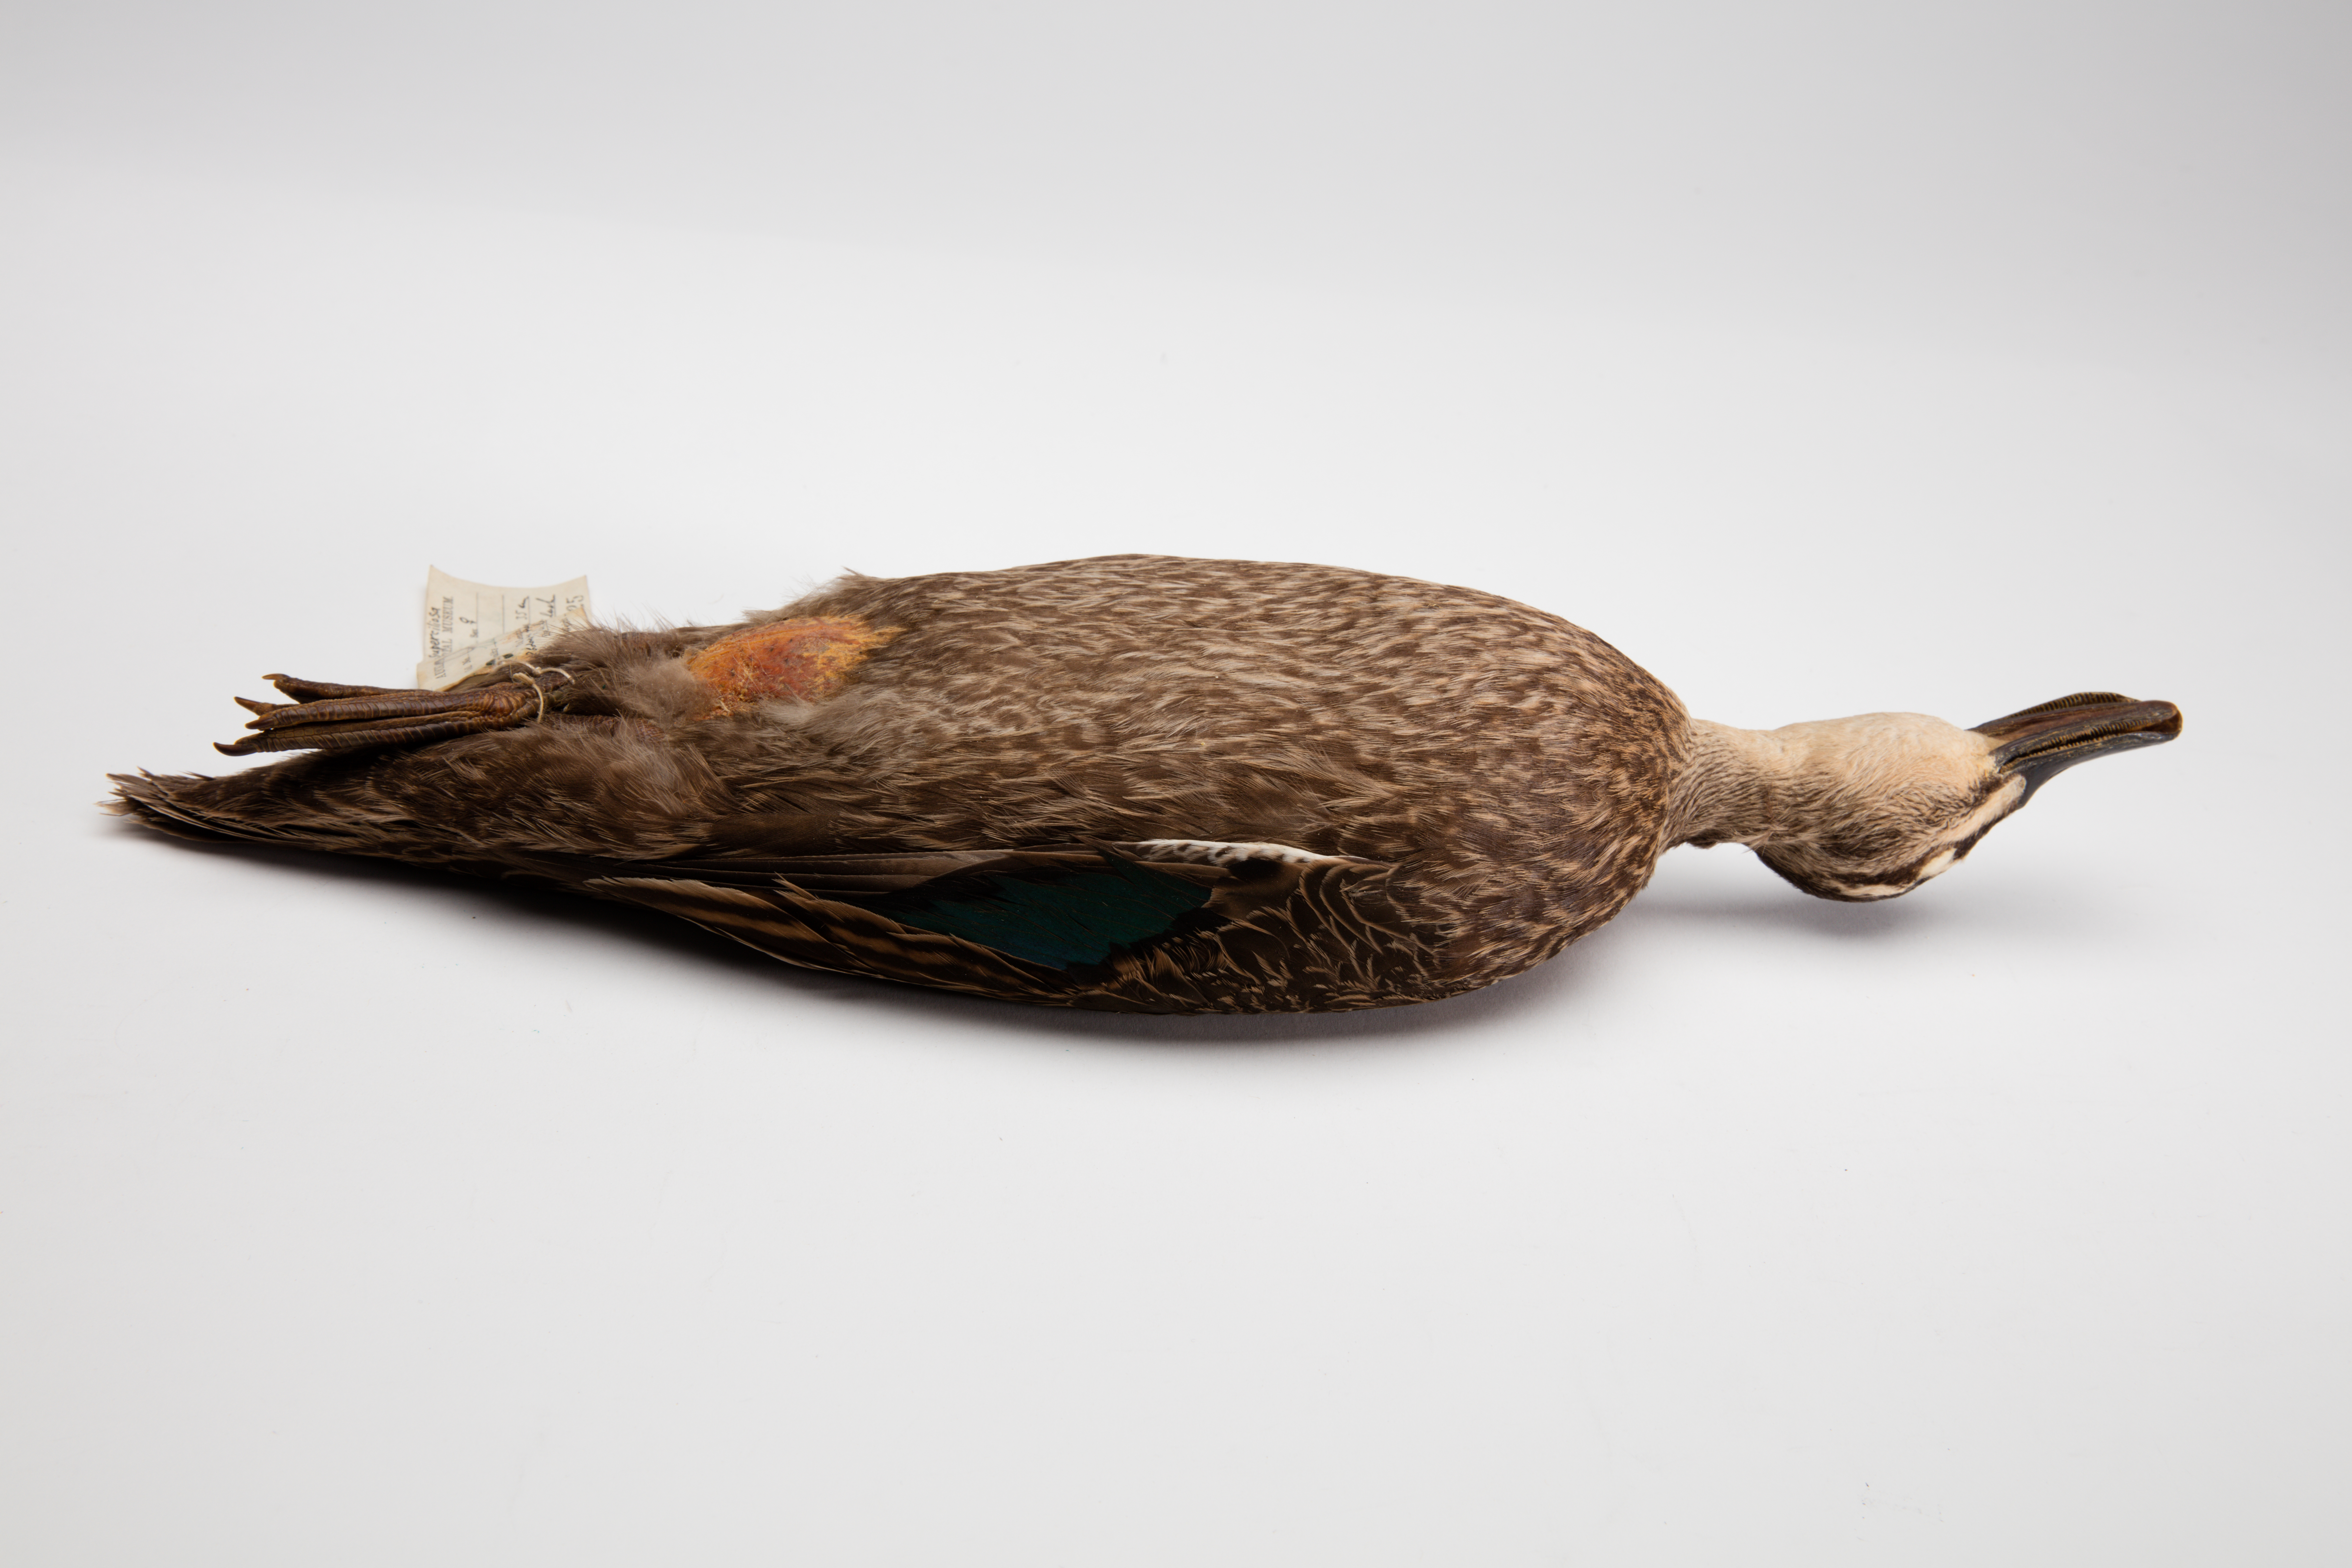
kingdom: Animalia
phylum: Chordata
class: Aves
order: Anseriformes
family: Anatidae
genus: Anas
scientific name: Anas superciliosa
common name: Pacific black duck
